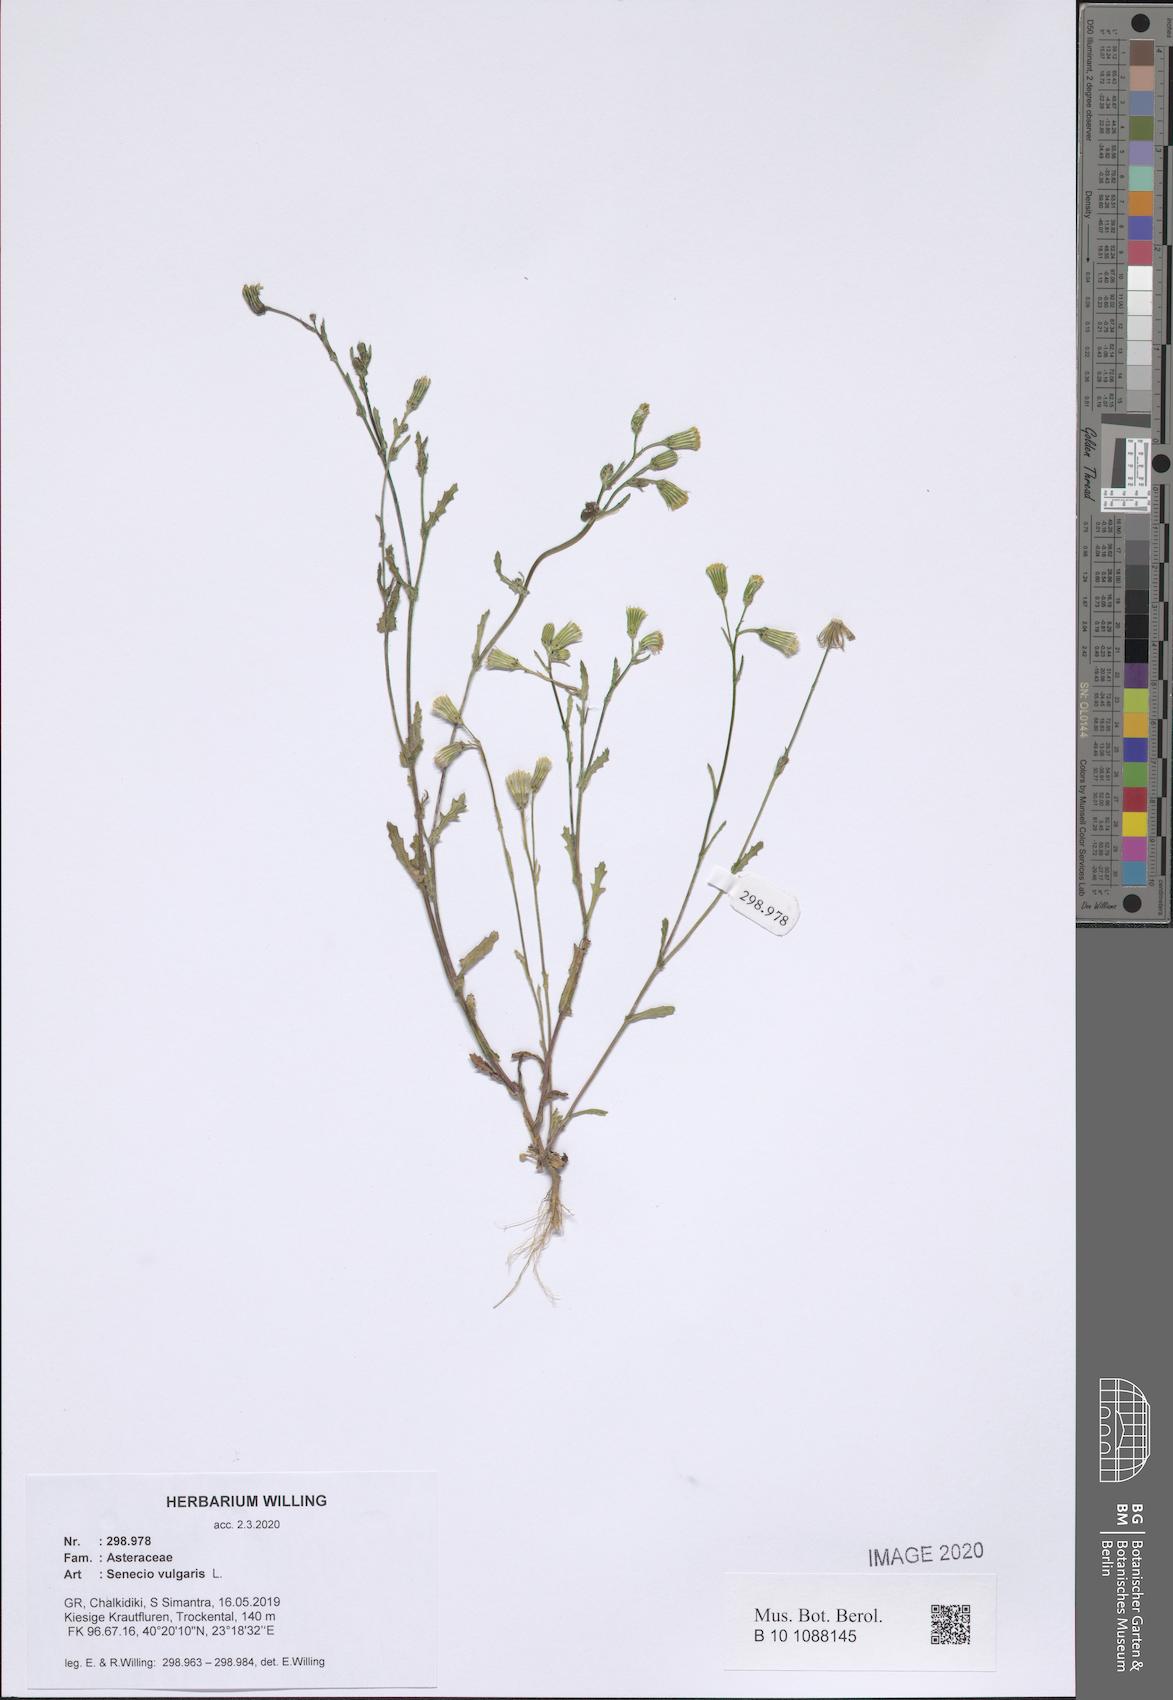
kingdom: Plantae
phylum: Tracheophyta
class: Magnoliopsida
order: Asterales
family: Asteraceae
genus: Senecio
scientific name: Senecio vulgaris
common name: Old-man-in-the-spring
